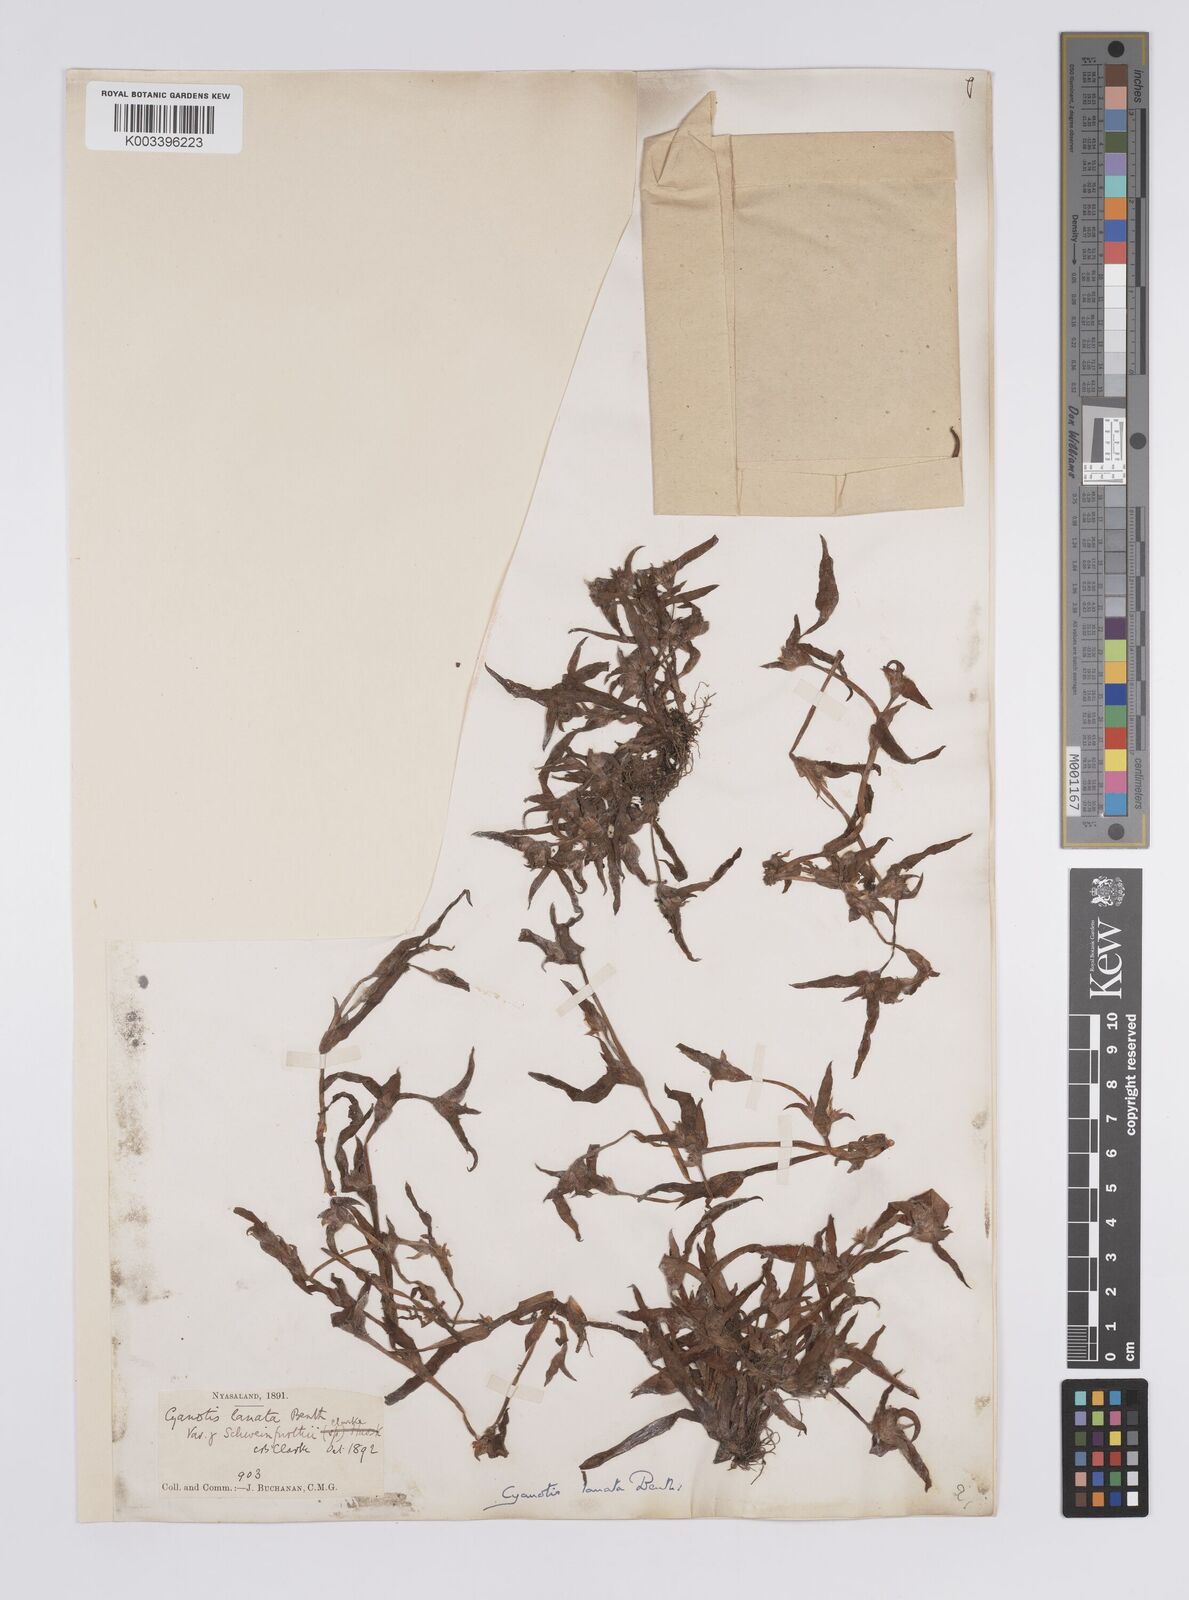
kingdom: Plantae
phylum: Tracheophyta
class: Liliopsida
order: Commelinales
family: Commelinaceae
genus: Cyanotis
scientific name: Cyanotis lanata
